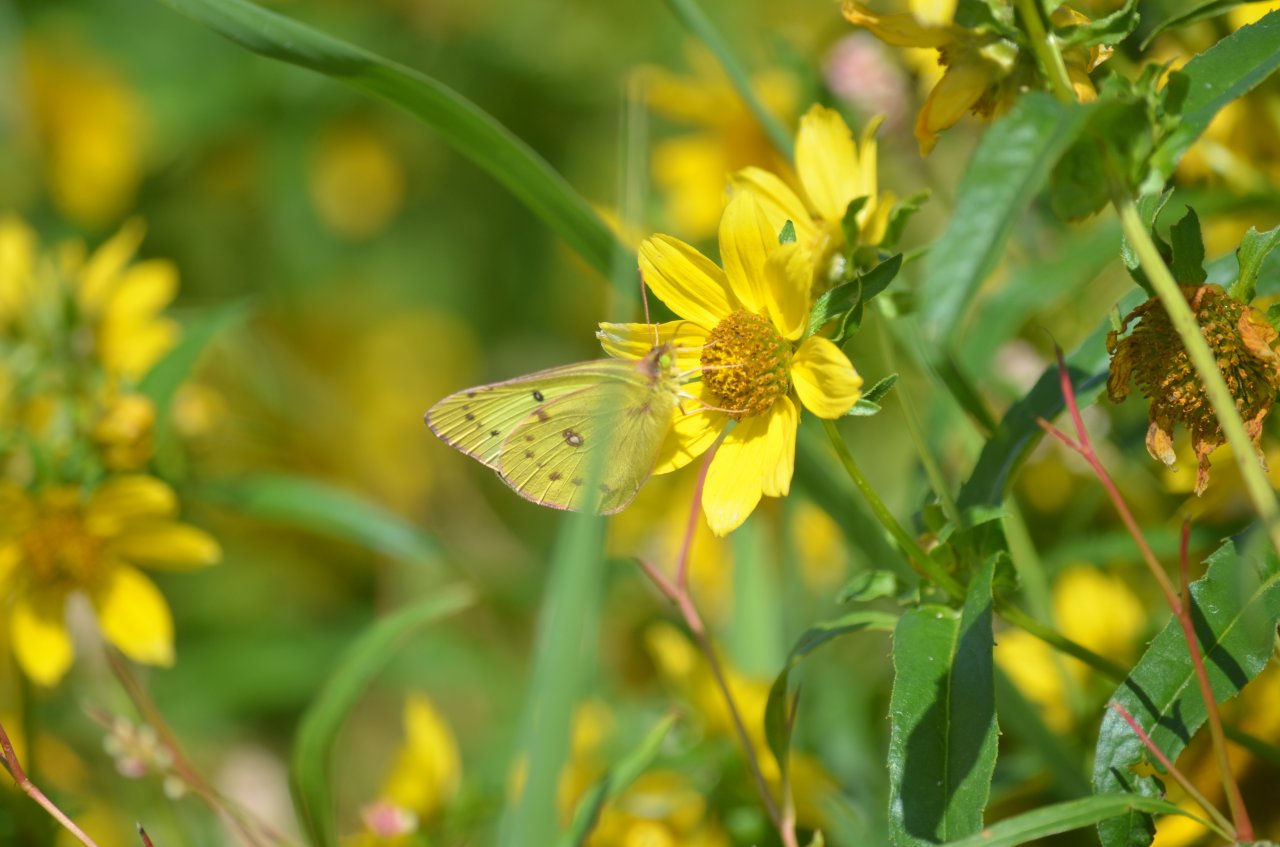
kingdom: Animalia
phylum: Arthropoda
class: Insecta
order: Lepidoptera
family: Pieridae
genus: Colias
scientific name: Colias philodice
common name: Clouded Sulphur
